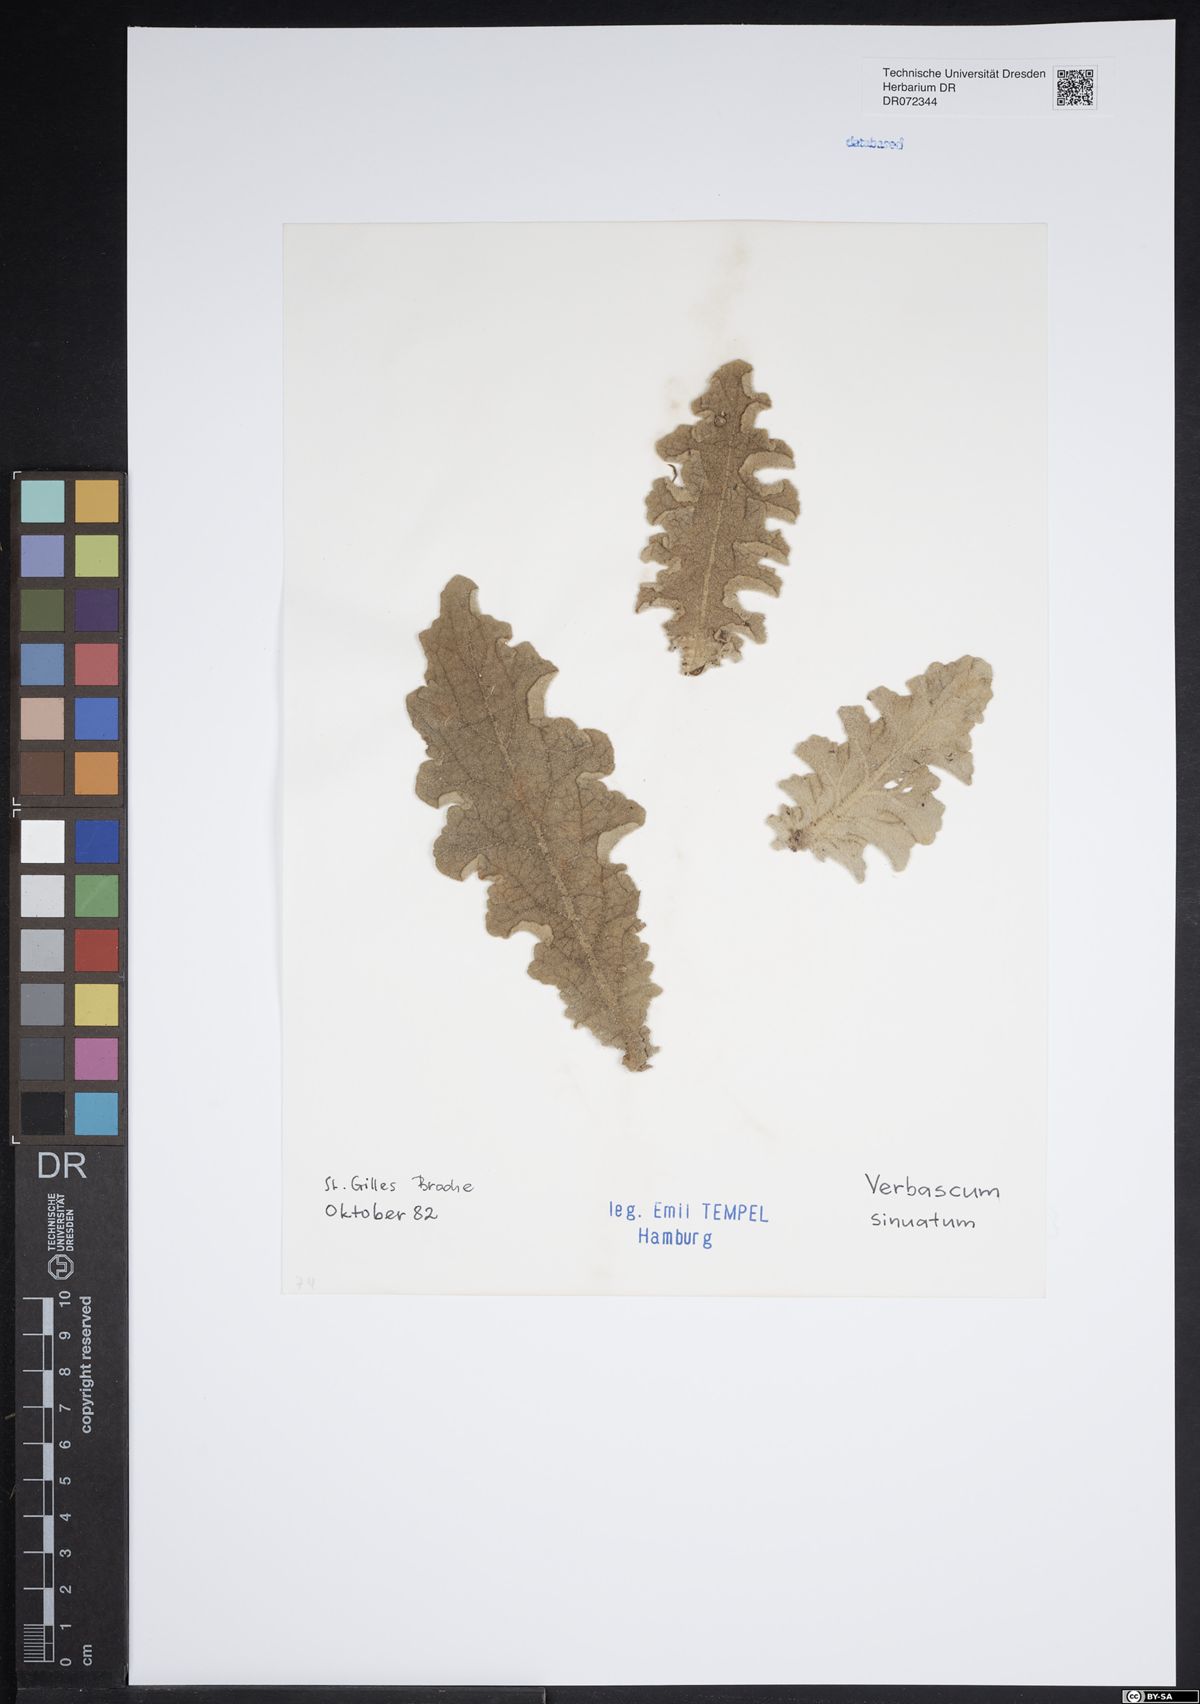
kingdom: Plantae
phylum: Tracheophyta
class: Magnoliopsida
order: Lamiales
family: Scrophulariaceae
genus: Verbascum
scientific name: Verbascum sinuatum
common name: Wavyleaf mullein
